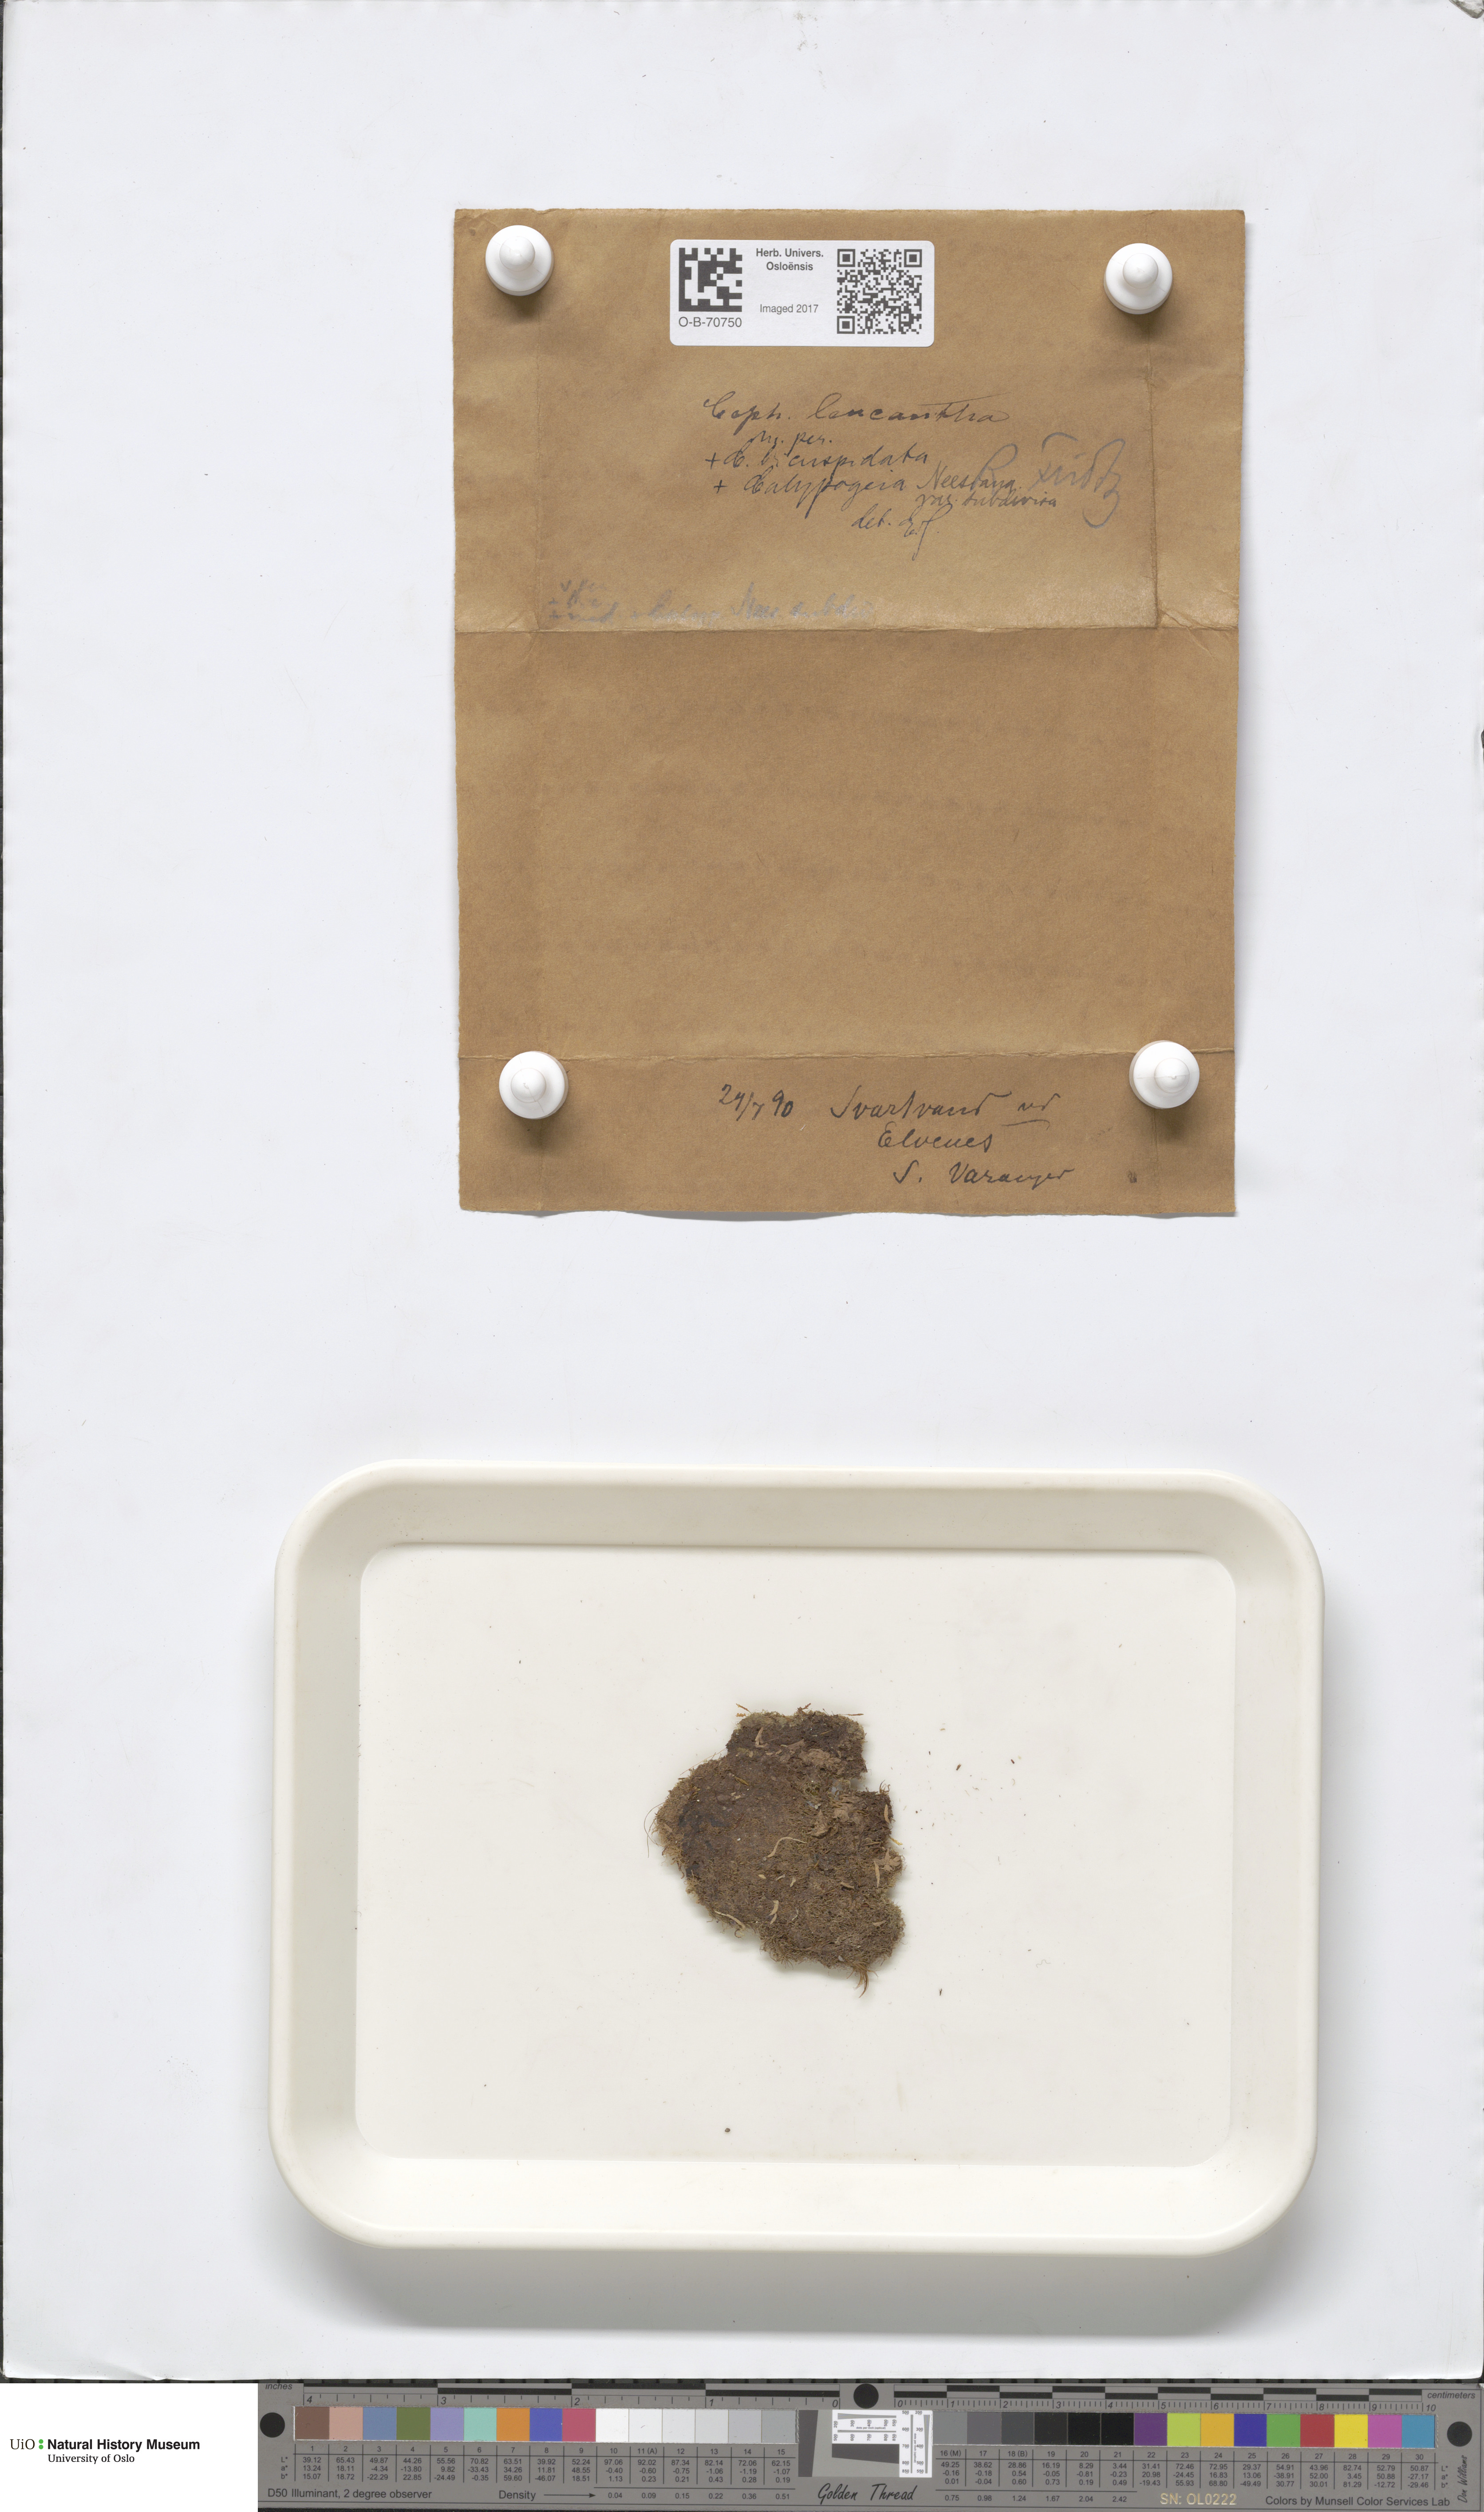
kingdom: Plantae
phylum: Marchantiophyta
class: Jungermanniopsida
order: Jungermanniales
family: Cephaloziaceae
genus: Fuscocephaloziopsis
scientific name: Fuscocephaloziopsis leucantha
